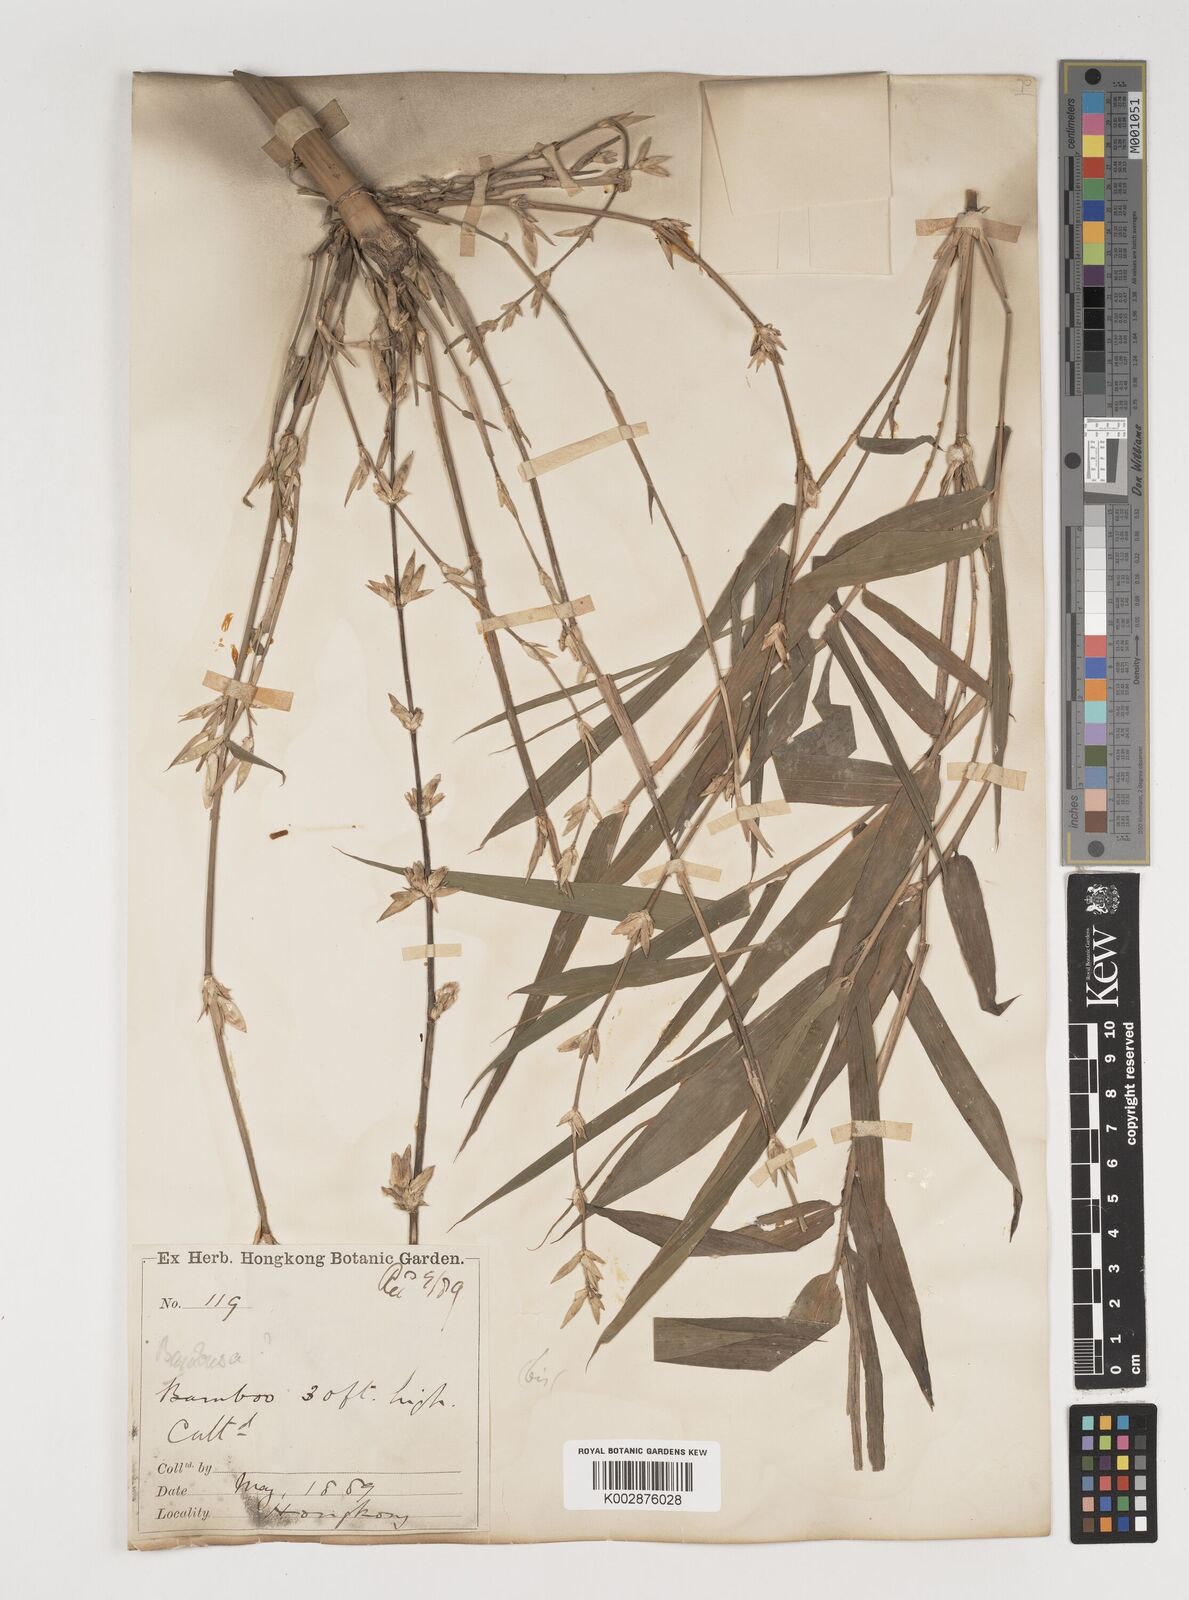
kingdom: Plantae
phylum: Tracheophyta
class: Liliopsida
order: Poales
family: Poaceae
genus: Bambusa
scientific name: Bambusa tuldoides
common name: Verdant bamboo
